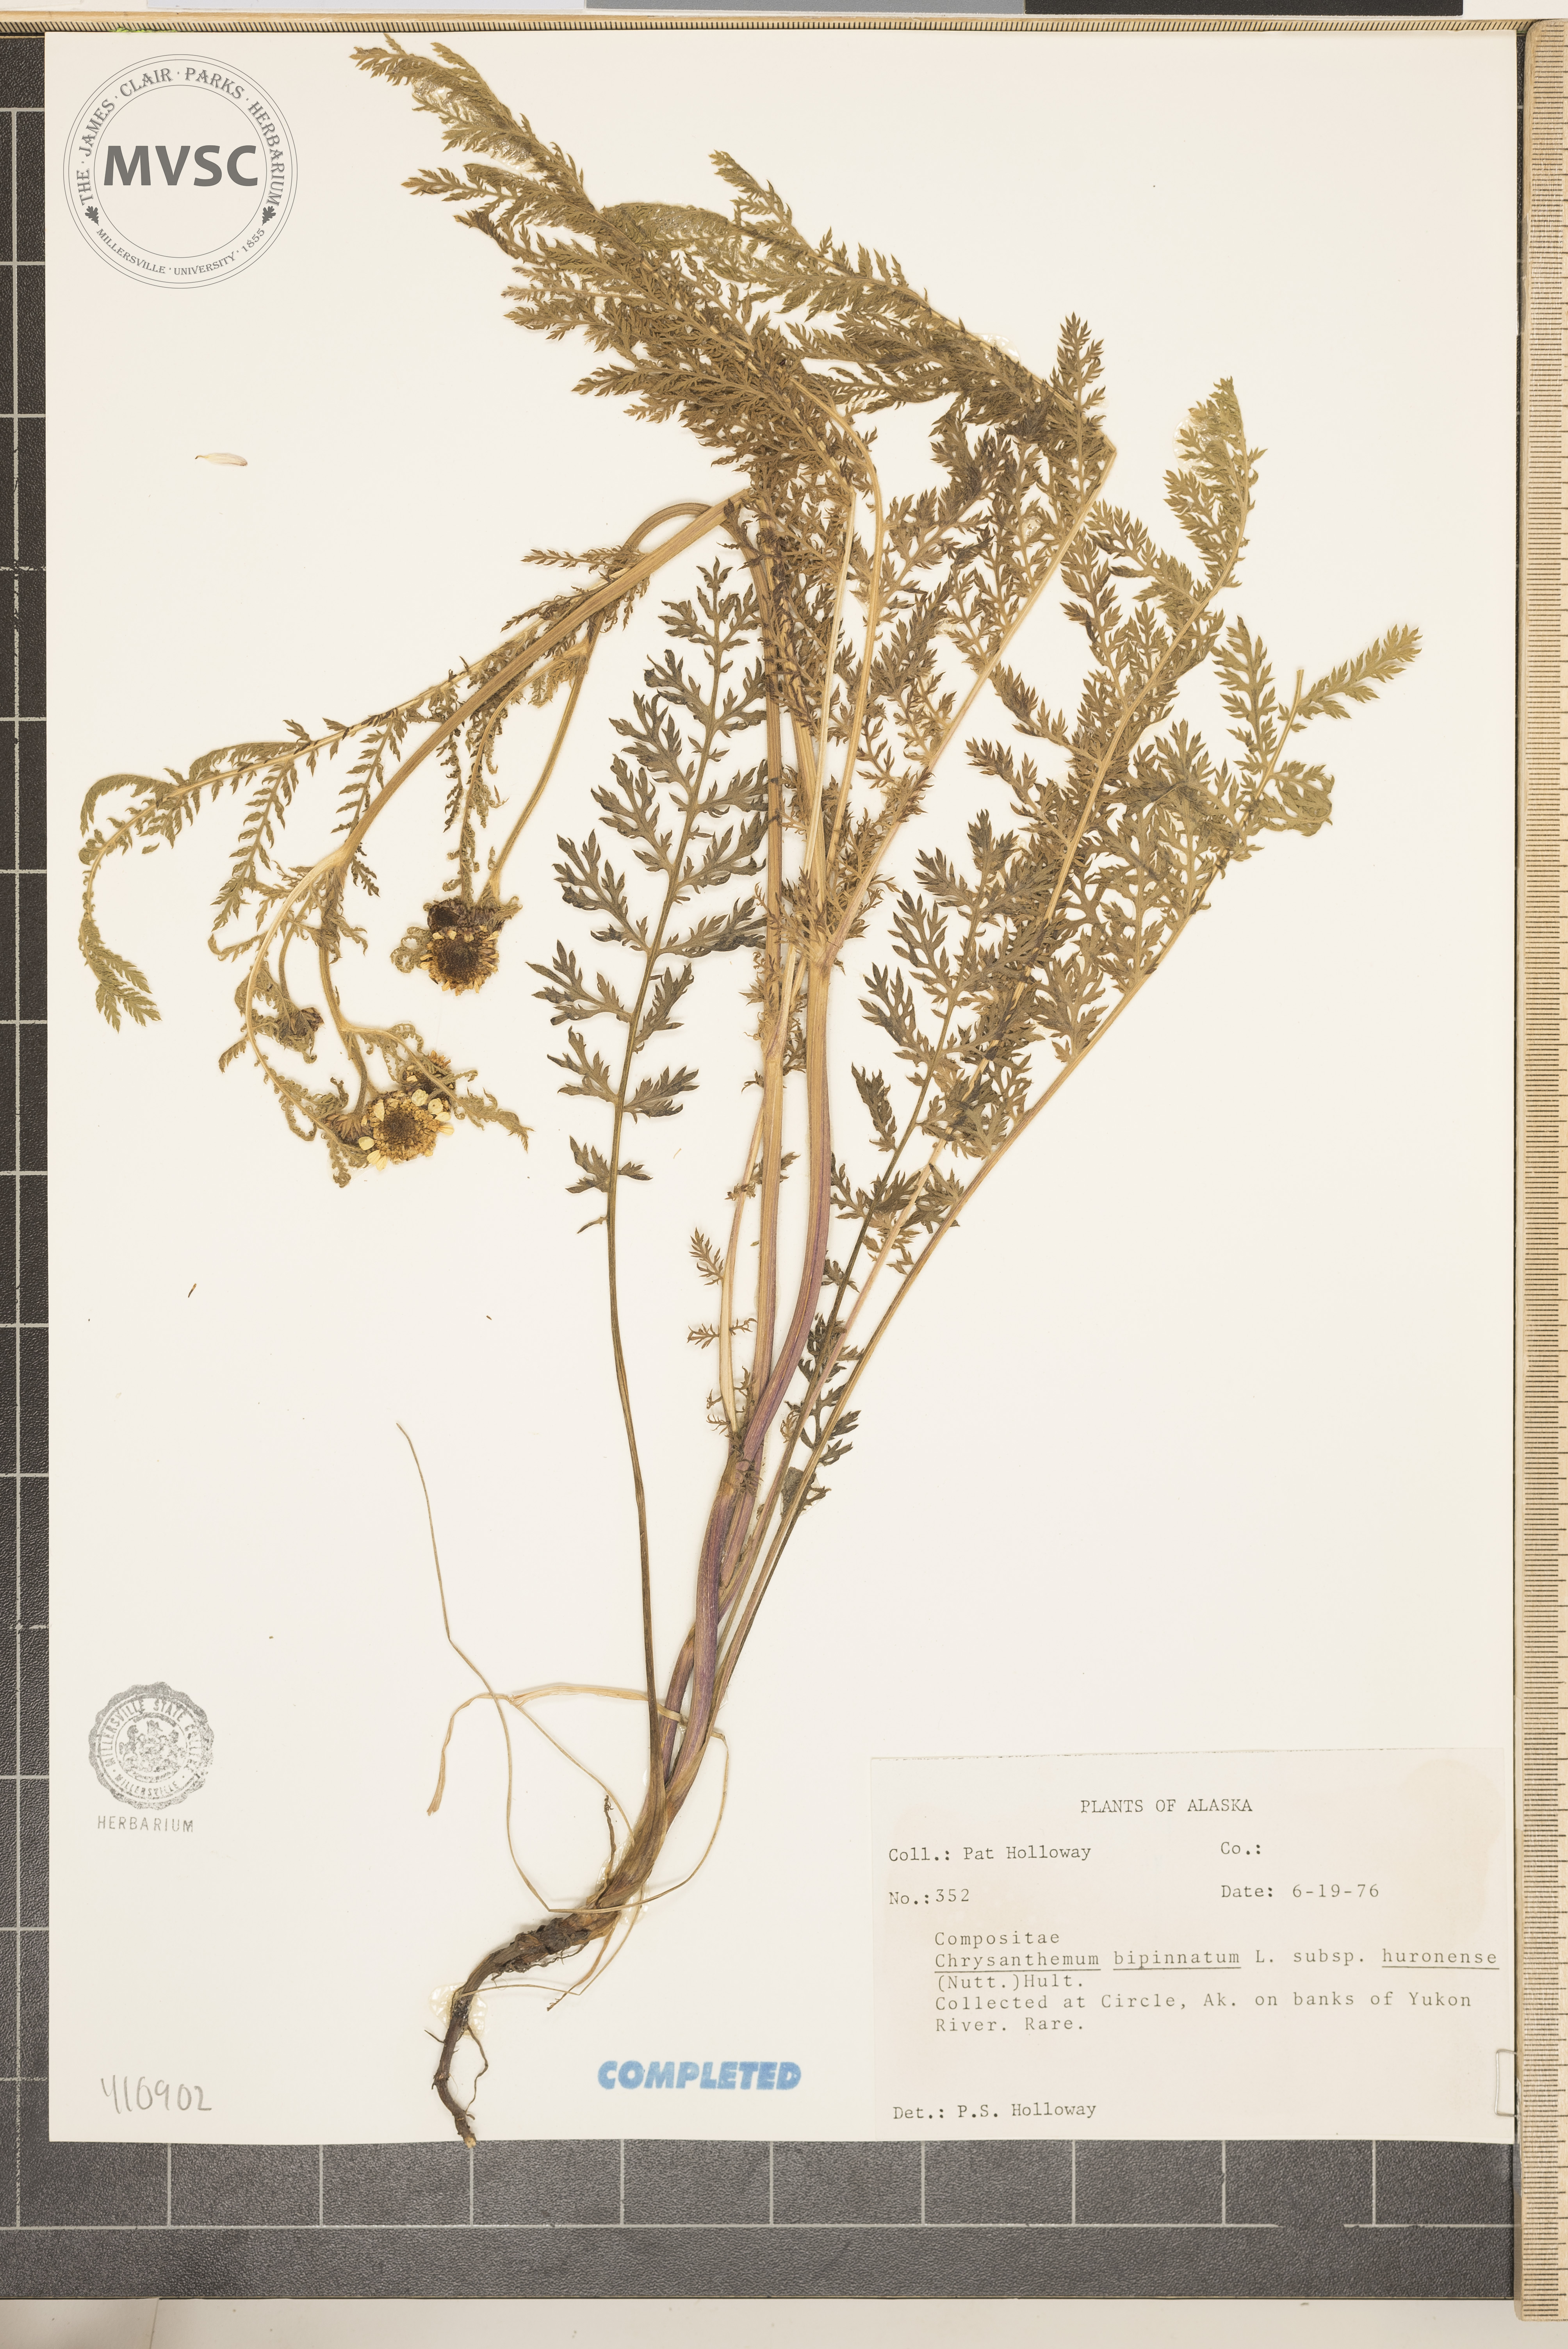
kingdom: Plantae
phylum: Tracheophyta
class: Magnoliopsida
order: Asterales
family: Asteraceae
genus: Tanacetum
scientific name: Tanacetum bipinnatum
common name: Dwarf tansy
